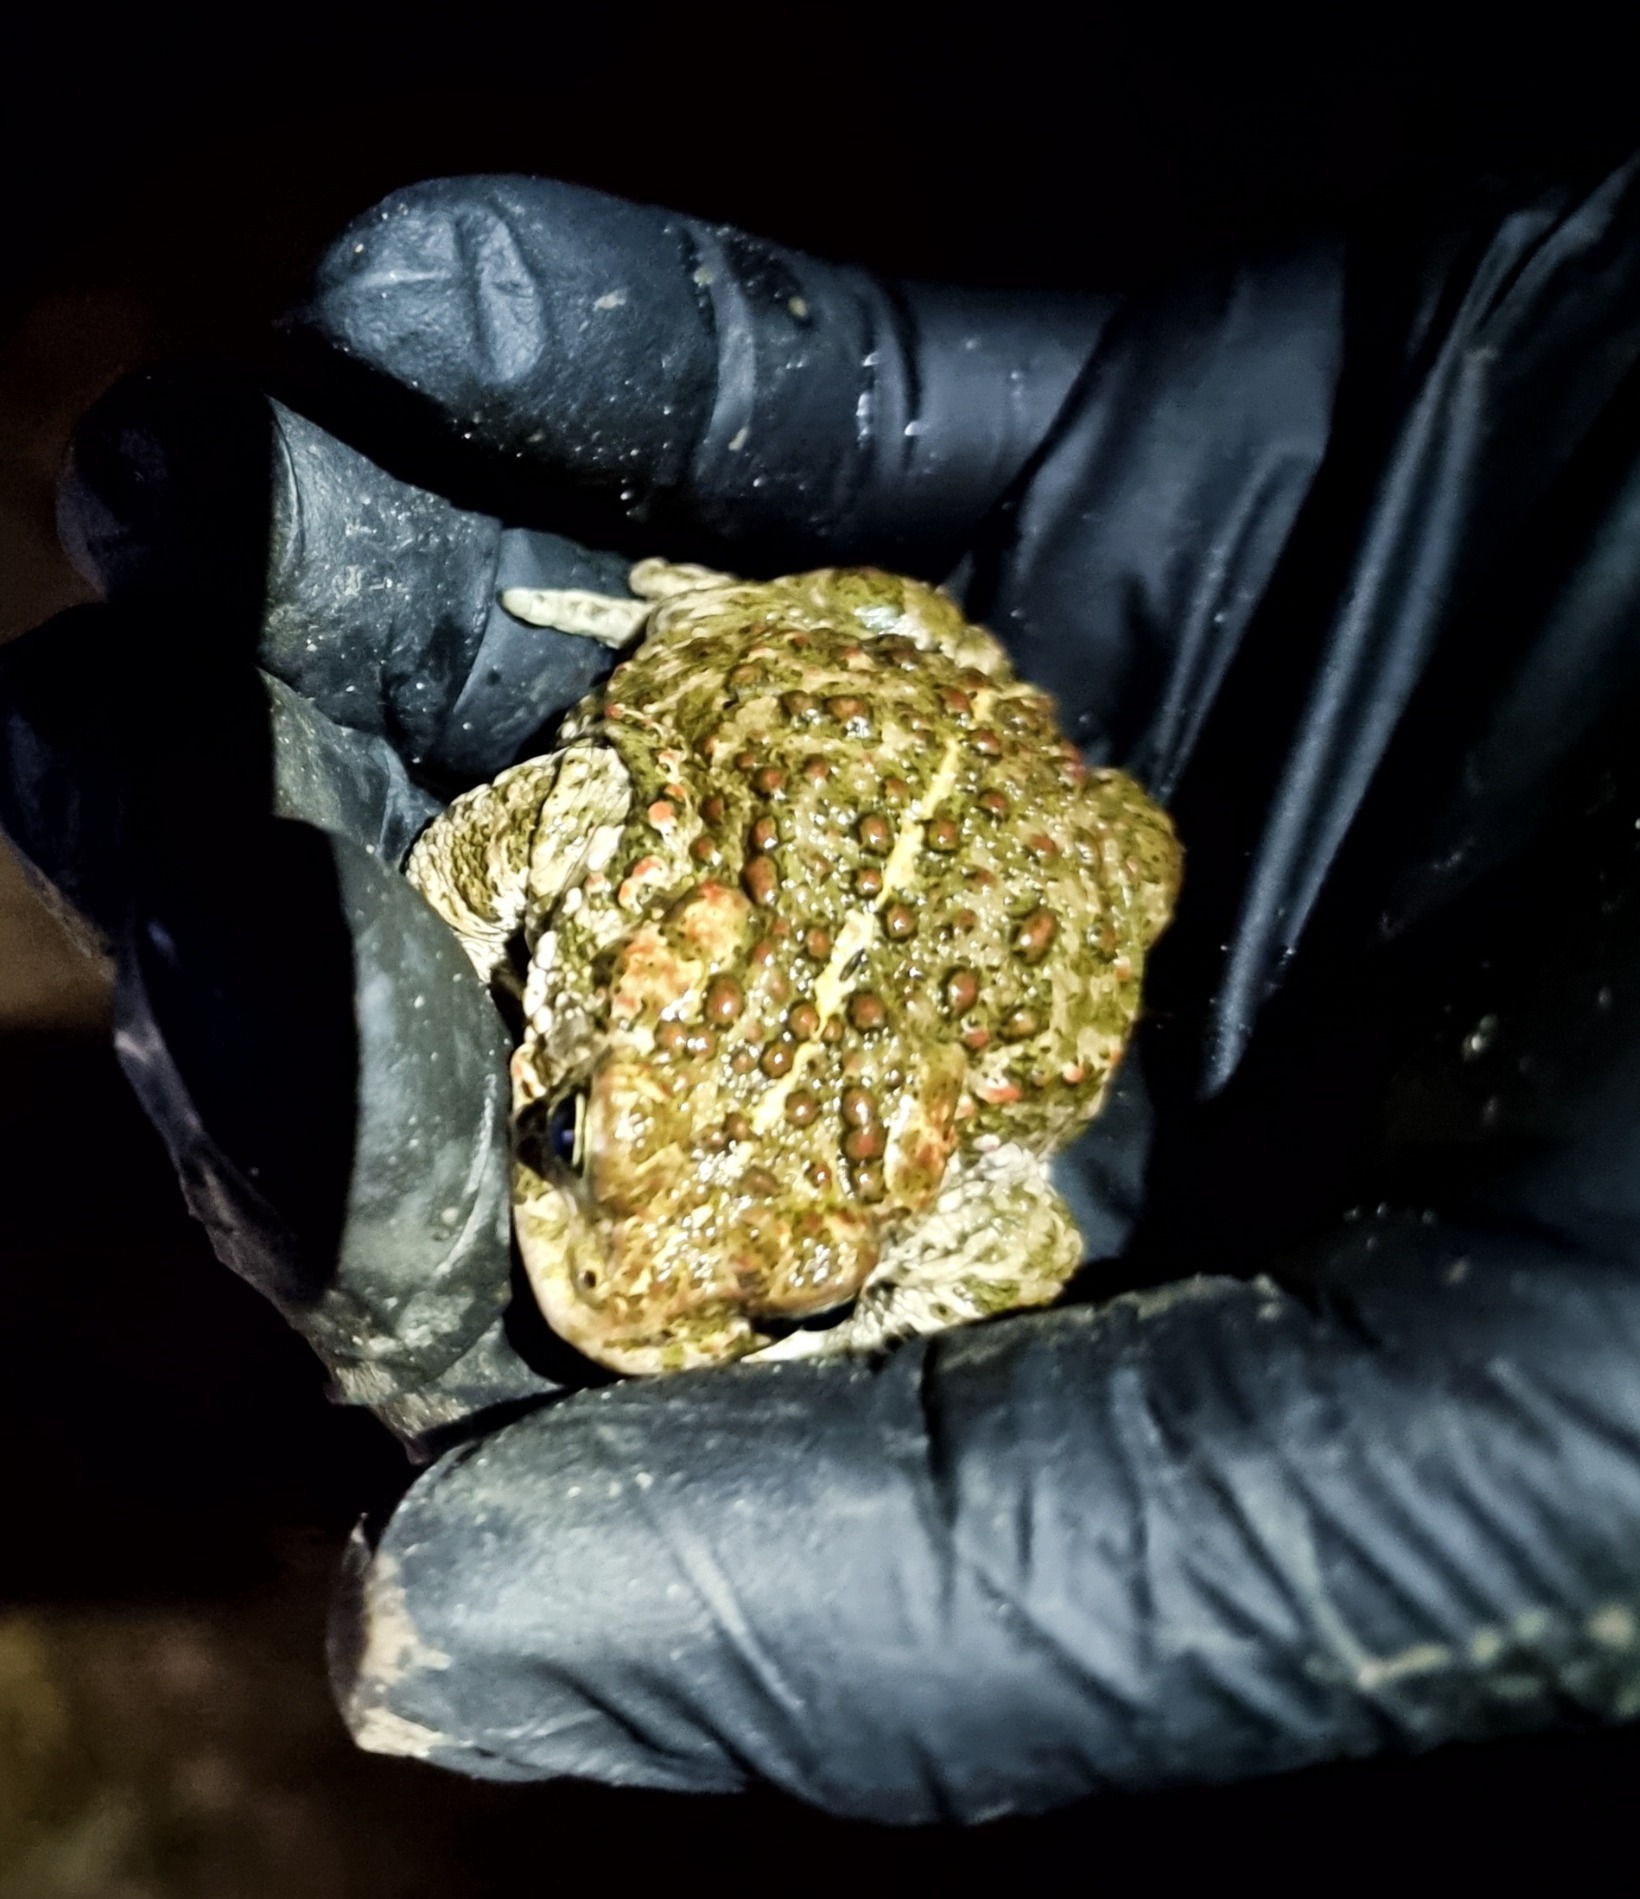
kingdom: Animalia
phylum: Chordata
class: Amphibia
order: Anura
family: Bufonidae
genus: Epidalea
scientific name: Epidalea calamita
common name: Strandtudse
